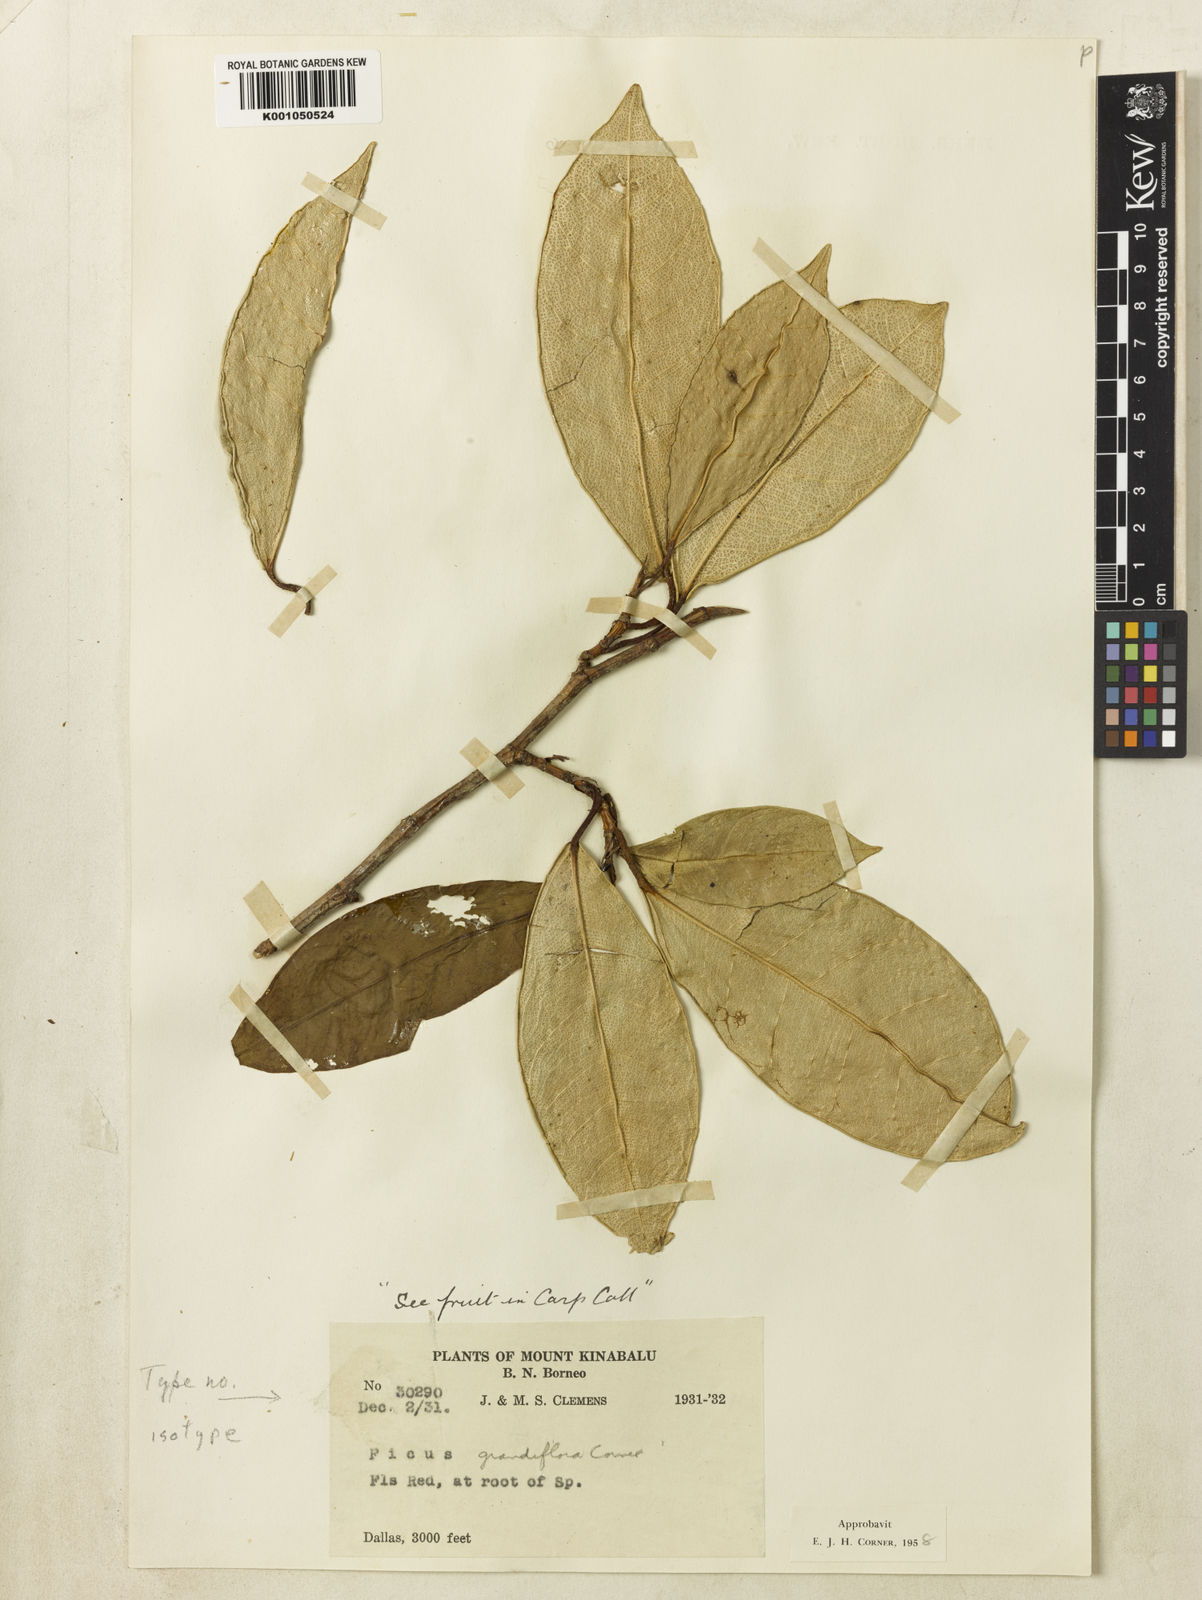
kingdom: Plantae
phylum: Tracheophyta
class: Magnoliopsida
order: Rosales
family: Moraceae
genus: Ficus
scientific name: Ficus grandiflora
